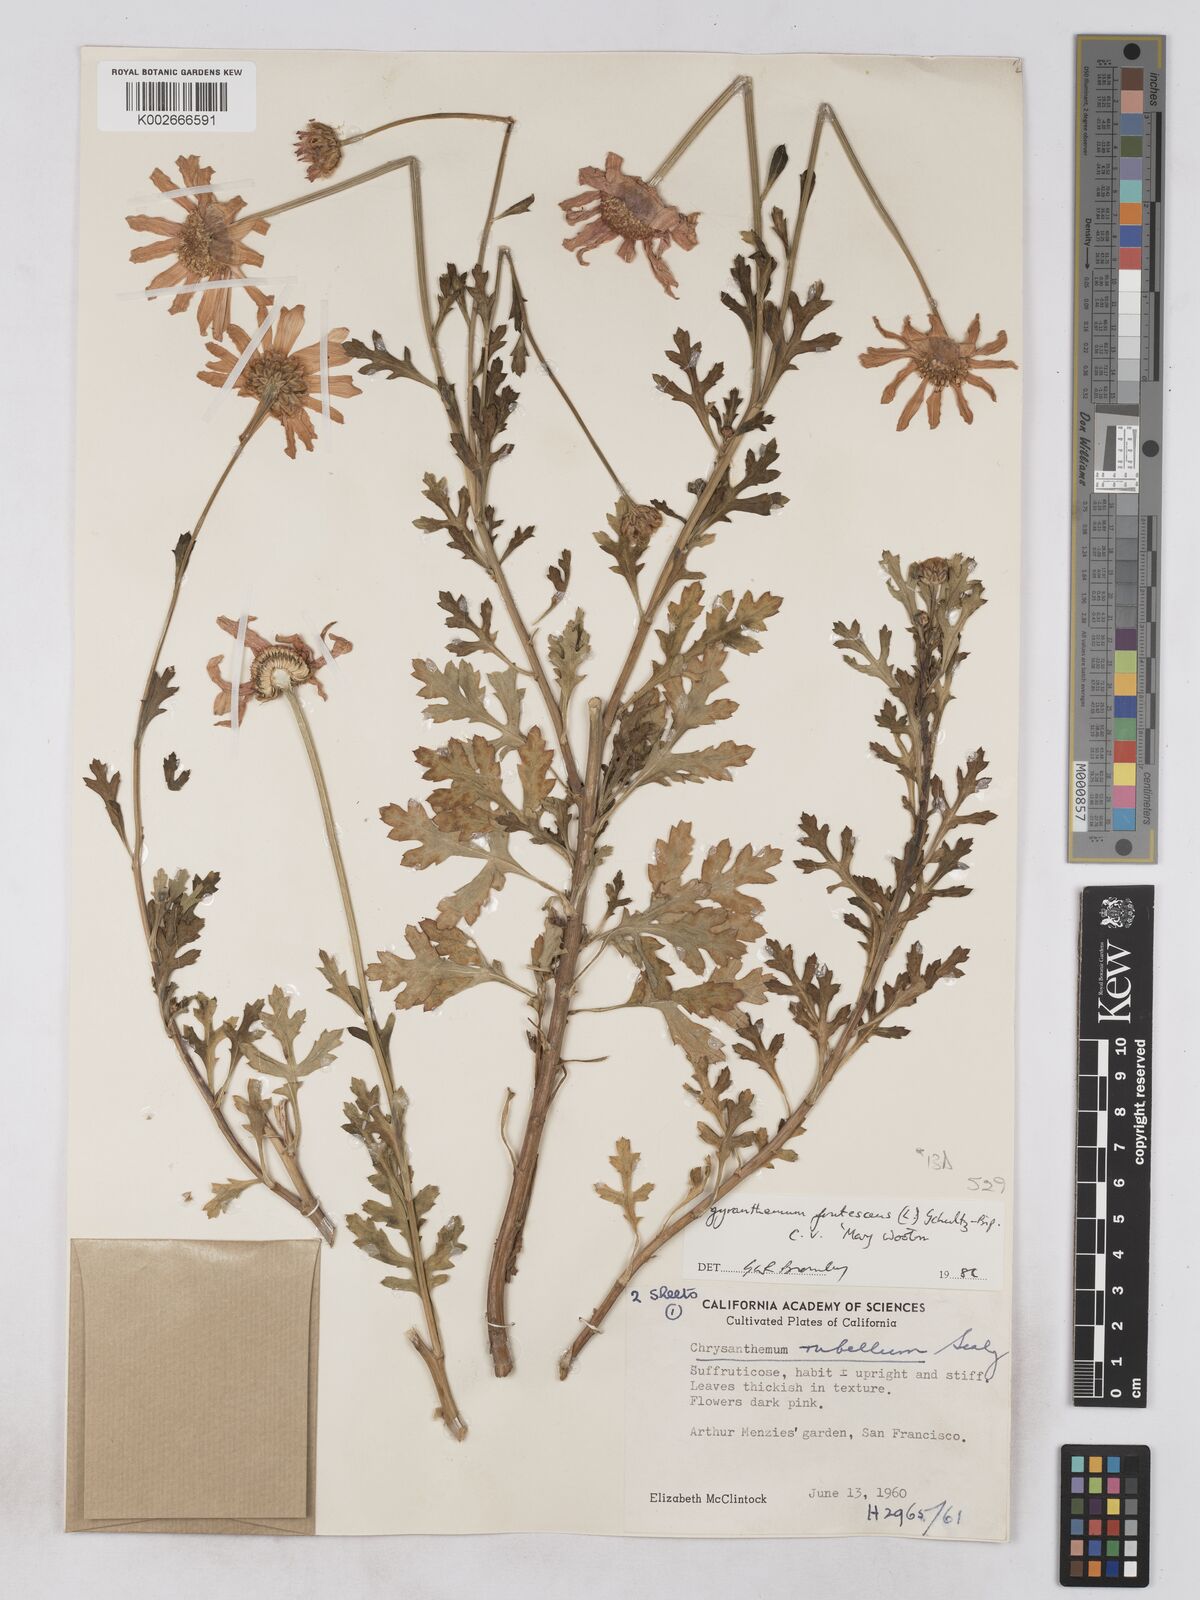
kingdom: Plantae
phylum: Tracheophyta
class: Magnoliopsida
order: Asterales
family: Asteraceae
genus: Argyranthemum
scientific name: Argyranthemum frutescens
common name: Paris daisy
